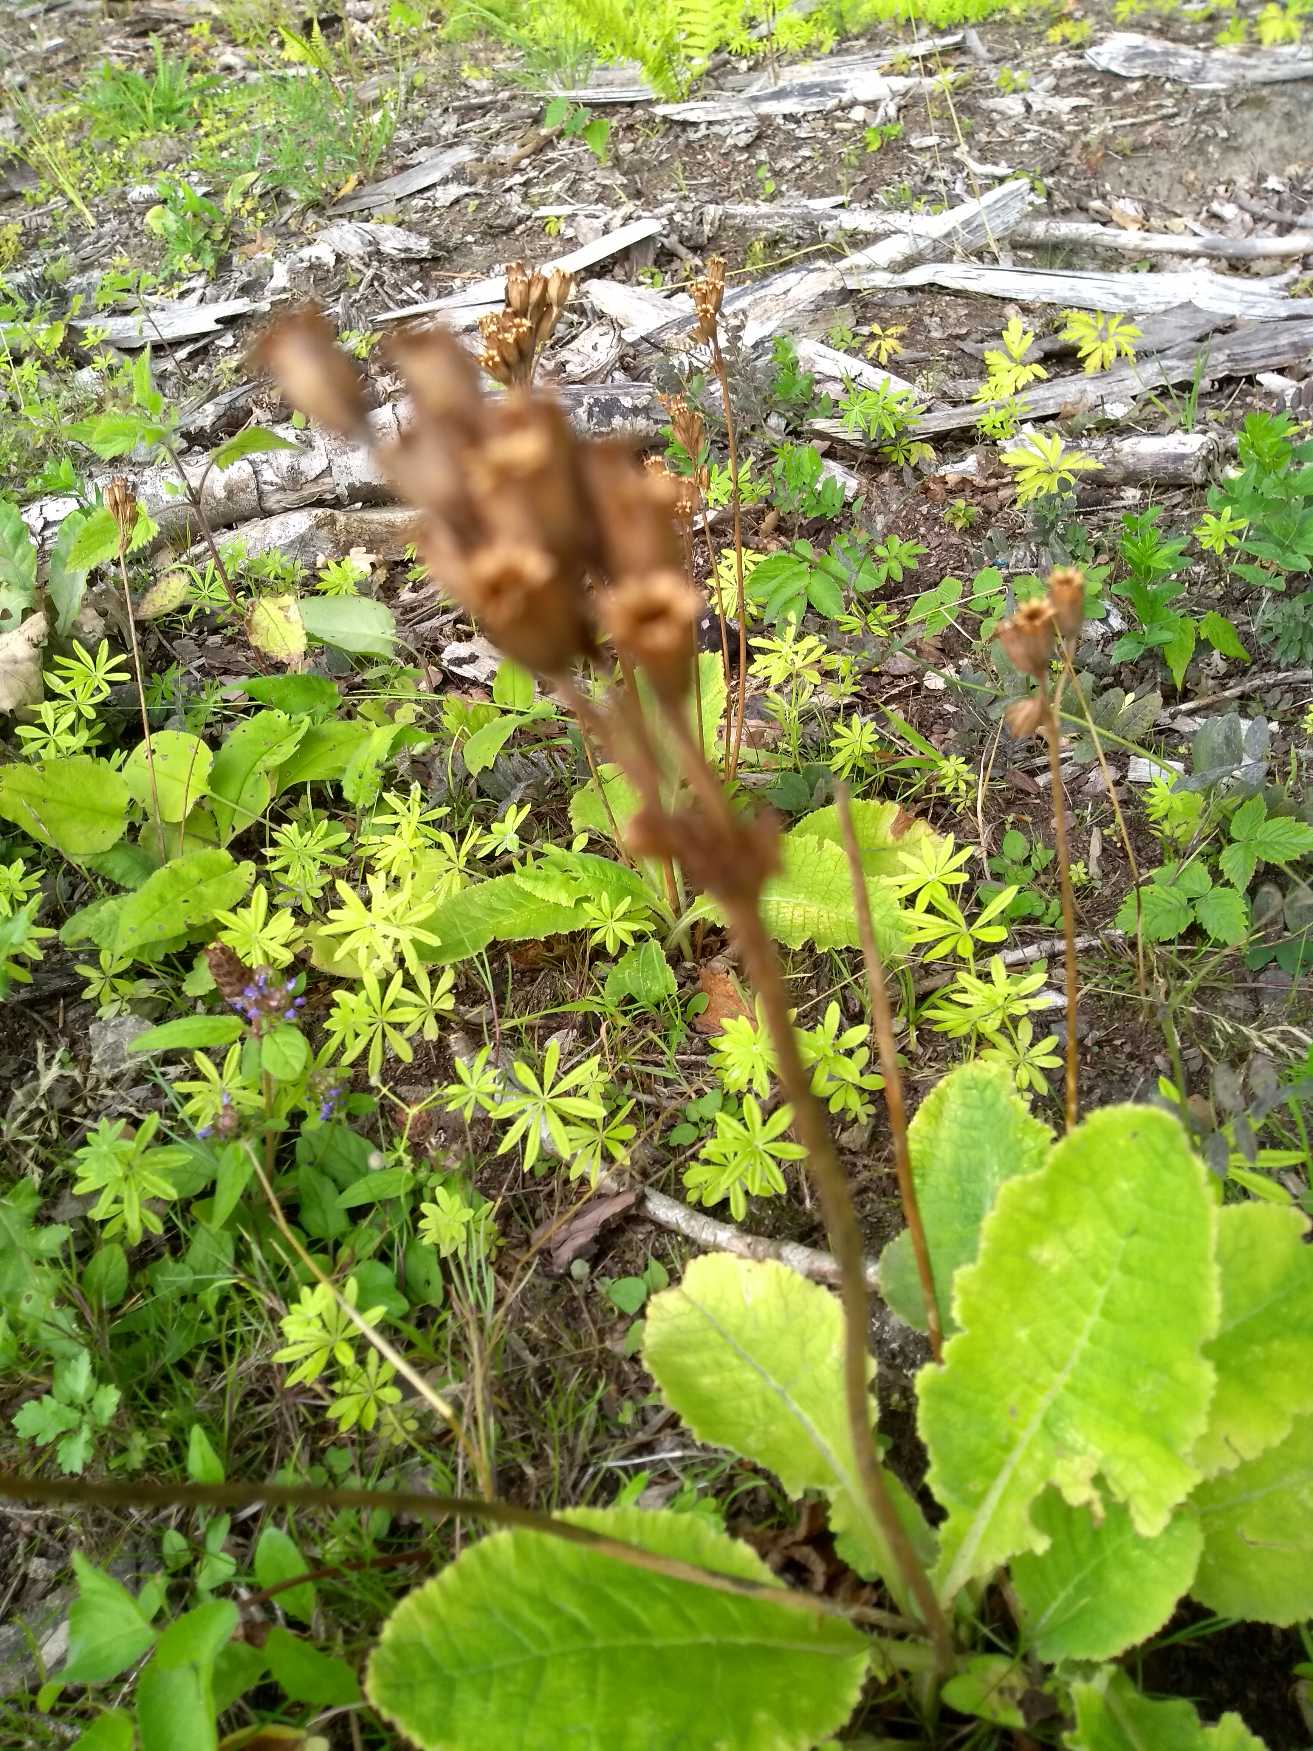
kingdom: Plantae
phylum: Tracheophyta
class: Magnoliopsida
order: Ericales
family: Primulaceae
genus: Primula
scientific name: Primula veris
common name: Hulkravet kodriver
